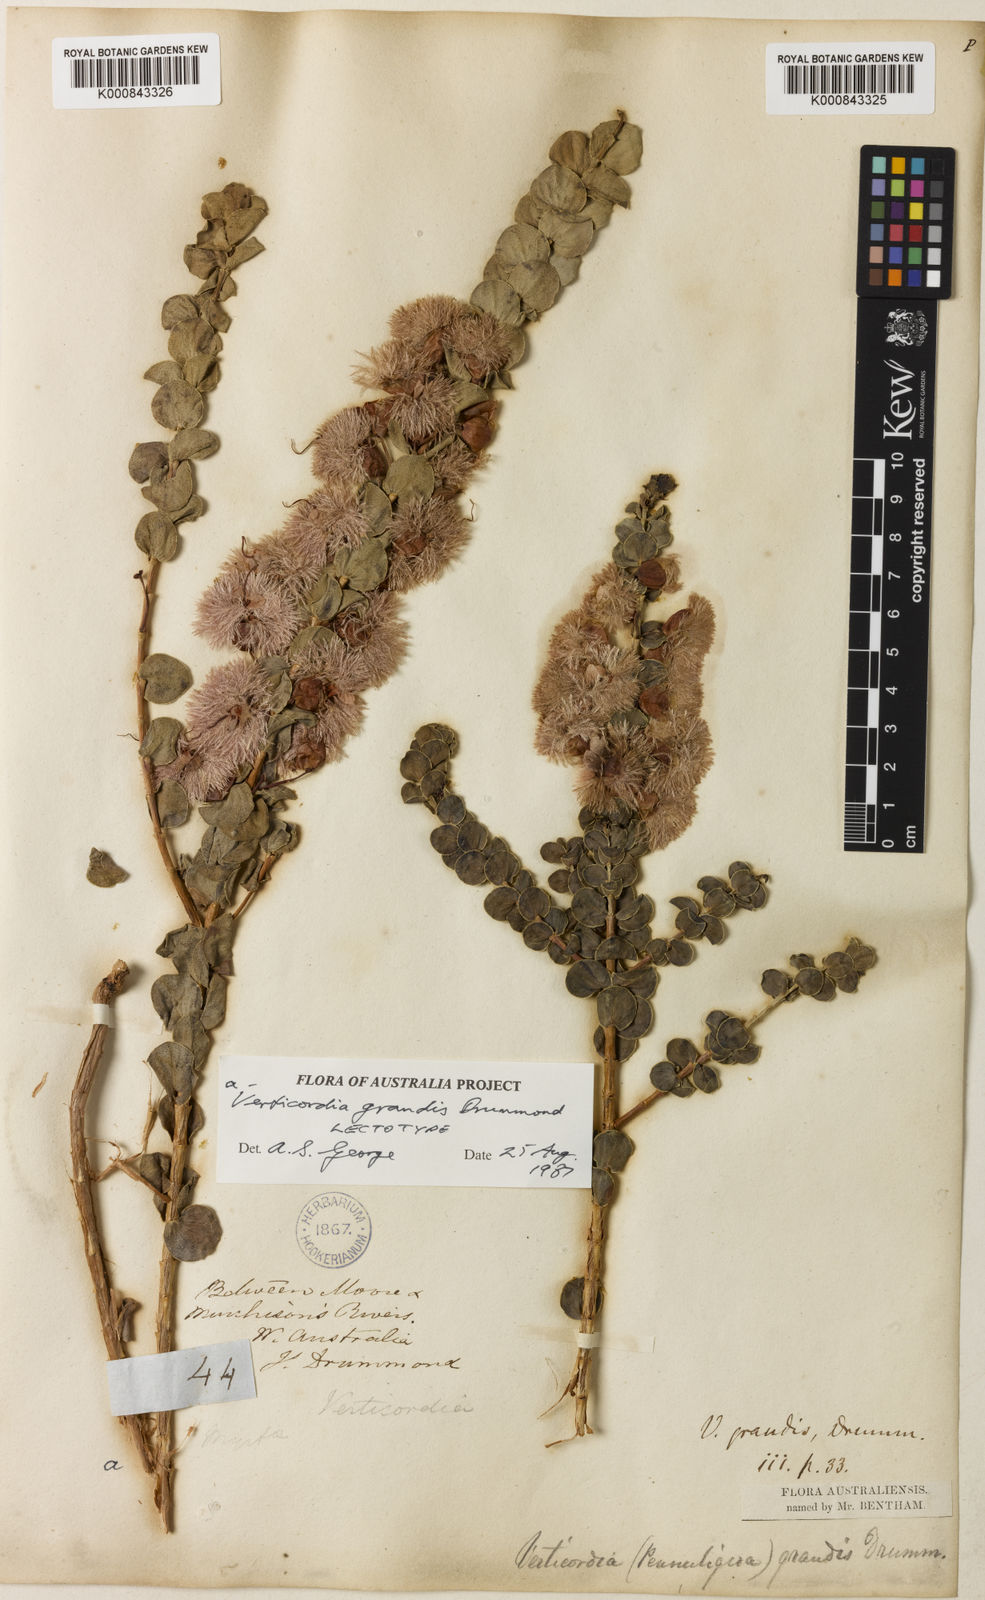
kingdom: Plantae
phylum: Tracheophyta
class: Magnoliopsida
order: Myrtales
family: Myrtaceae
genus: Verticordia
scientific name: Verticordia grandis
